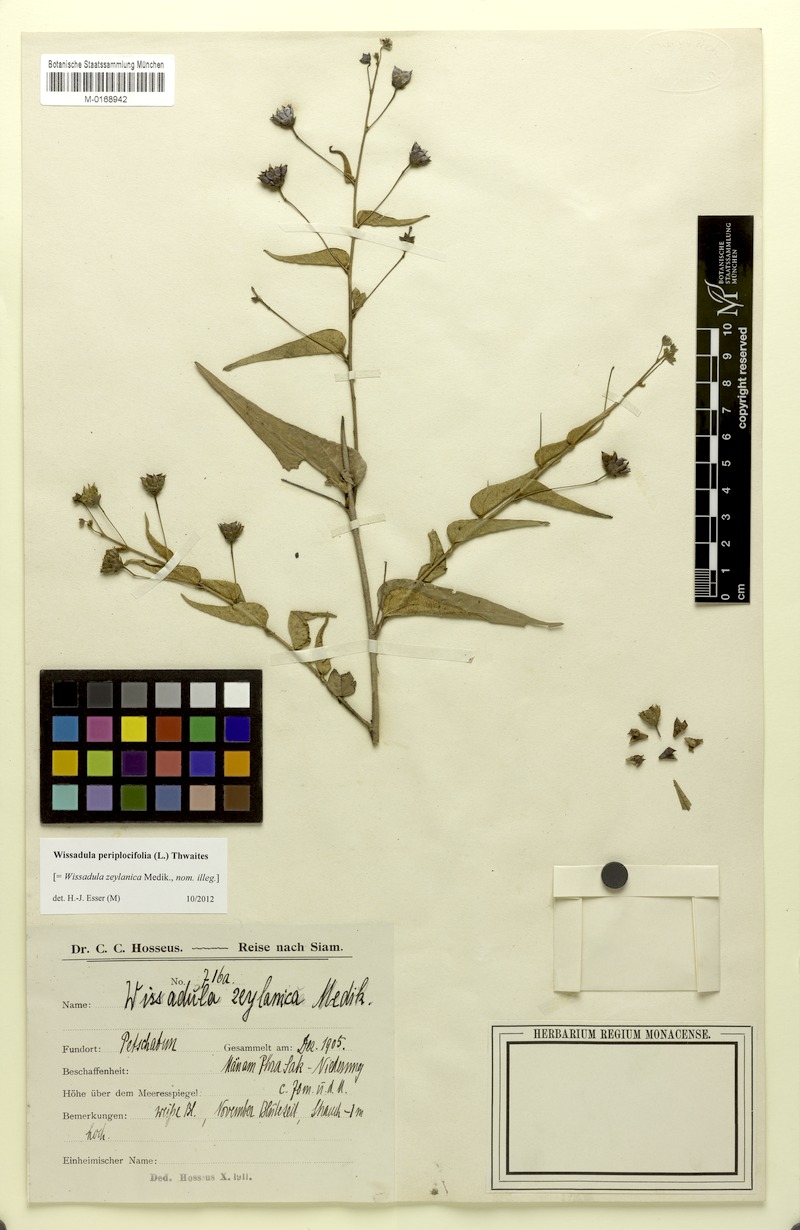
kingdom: Plantae
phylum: Tracheophyta
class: Magnoliopsida
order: Malvales
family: Malvaceae
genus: Wissadula
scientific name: Wissadula periplocifolia
